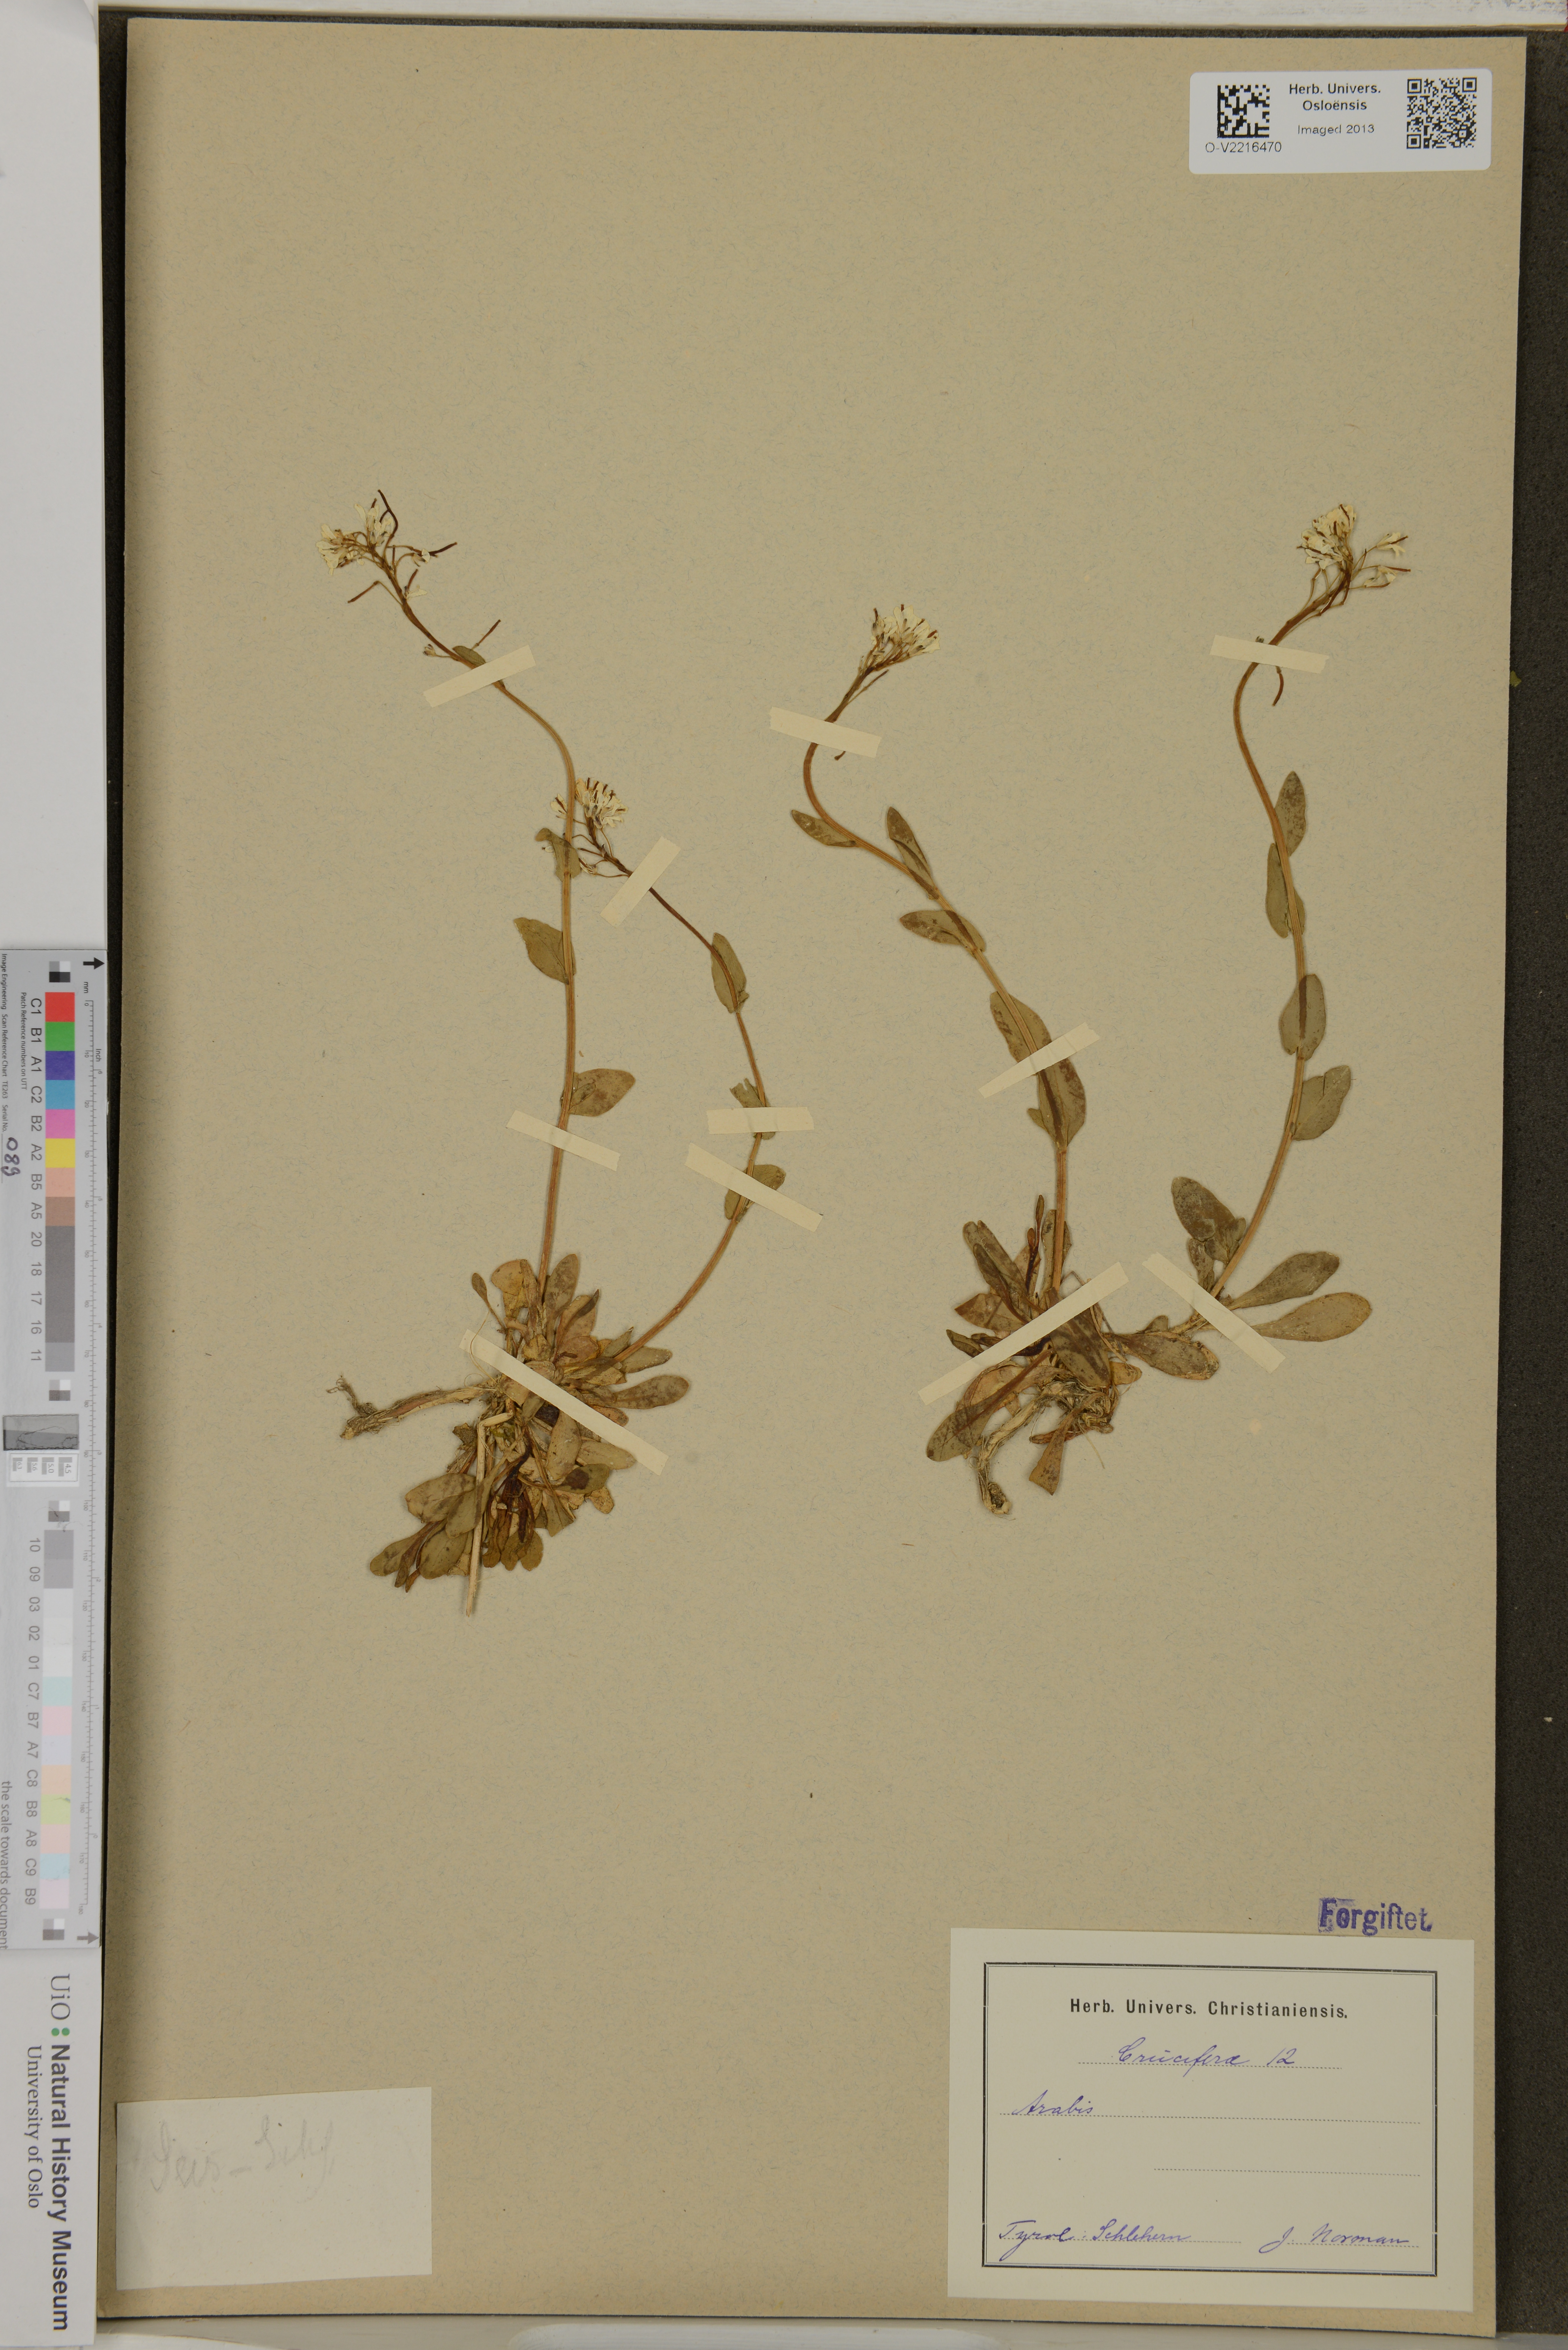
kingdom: Plantae
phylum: Tracheophyta
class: Magnoliopsida
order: Brassicales
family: Brassicaceae
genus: Arabis
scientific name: Arabis
